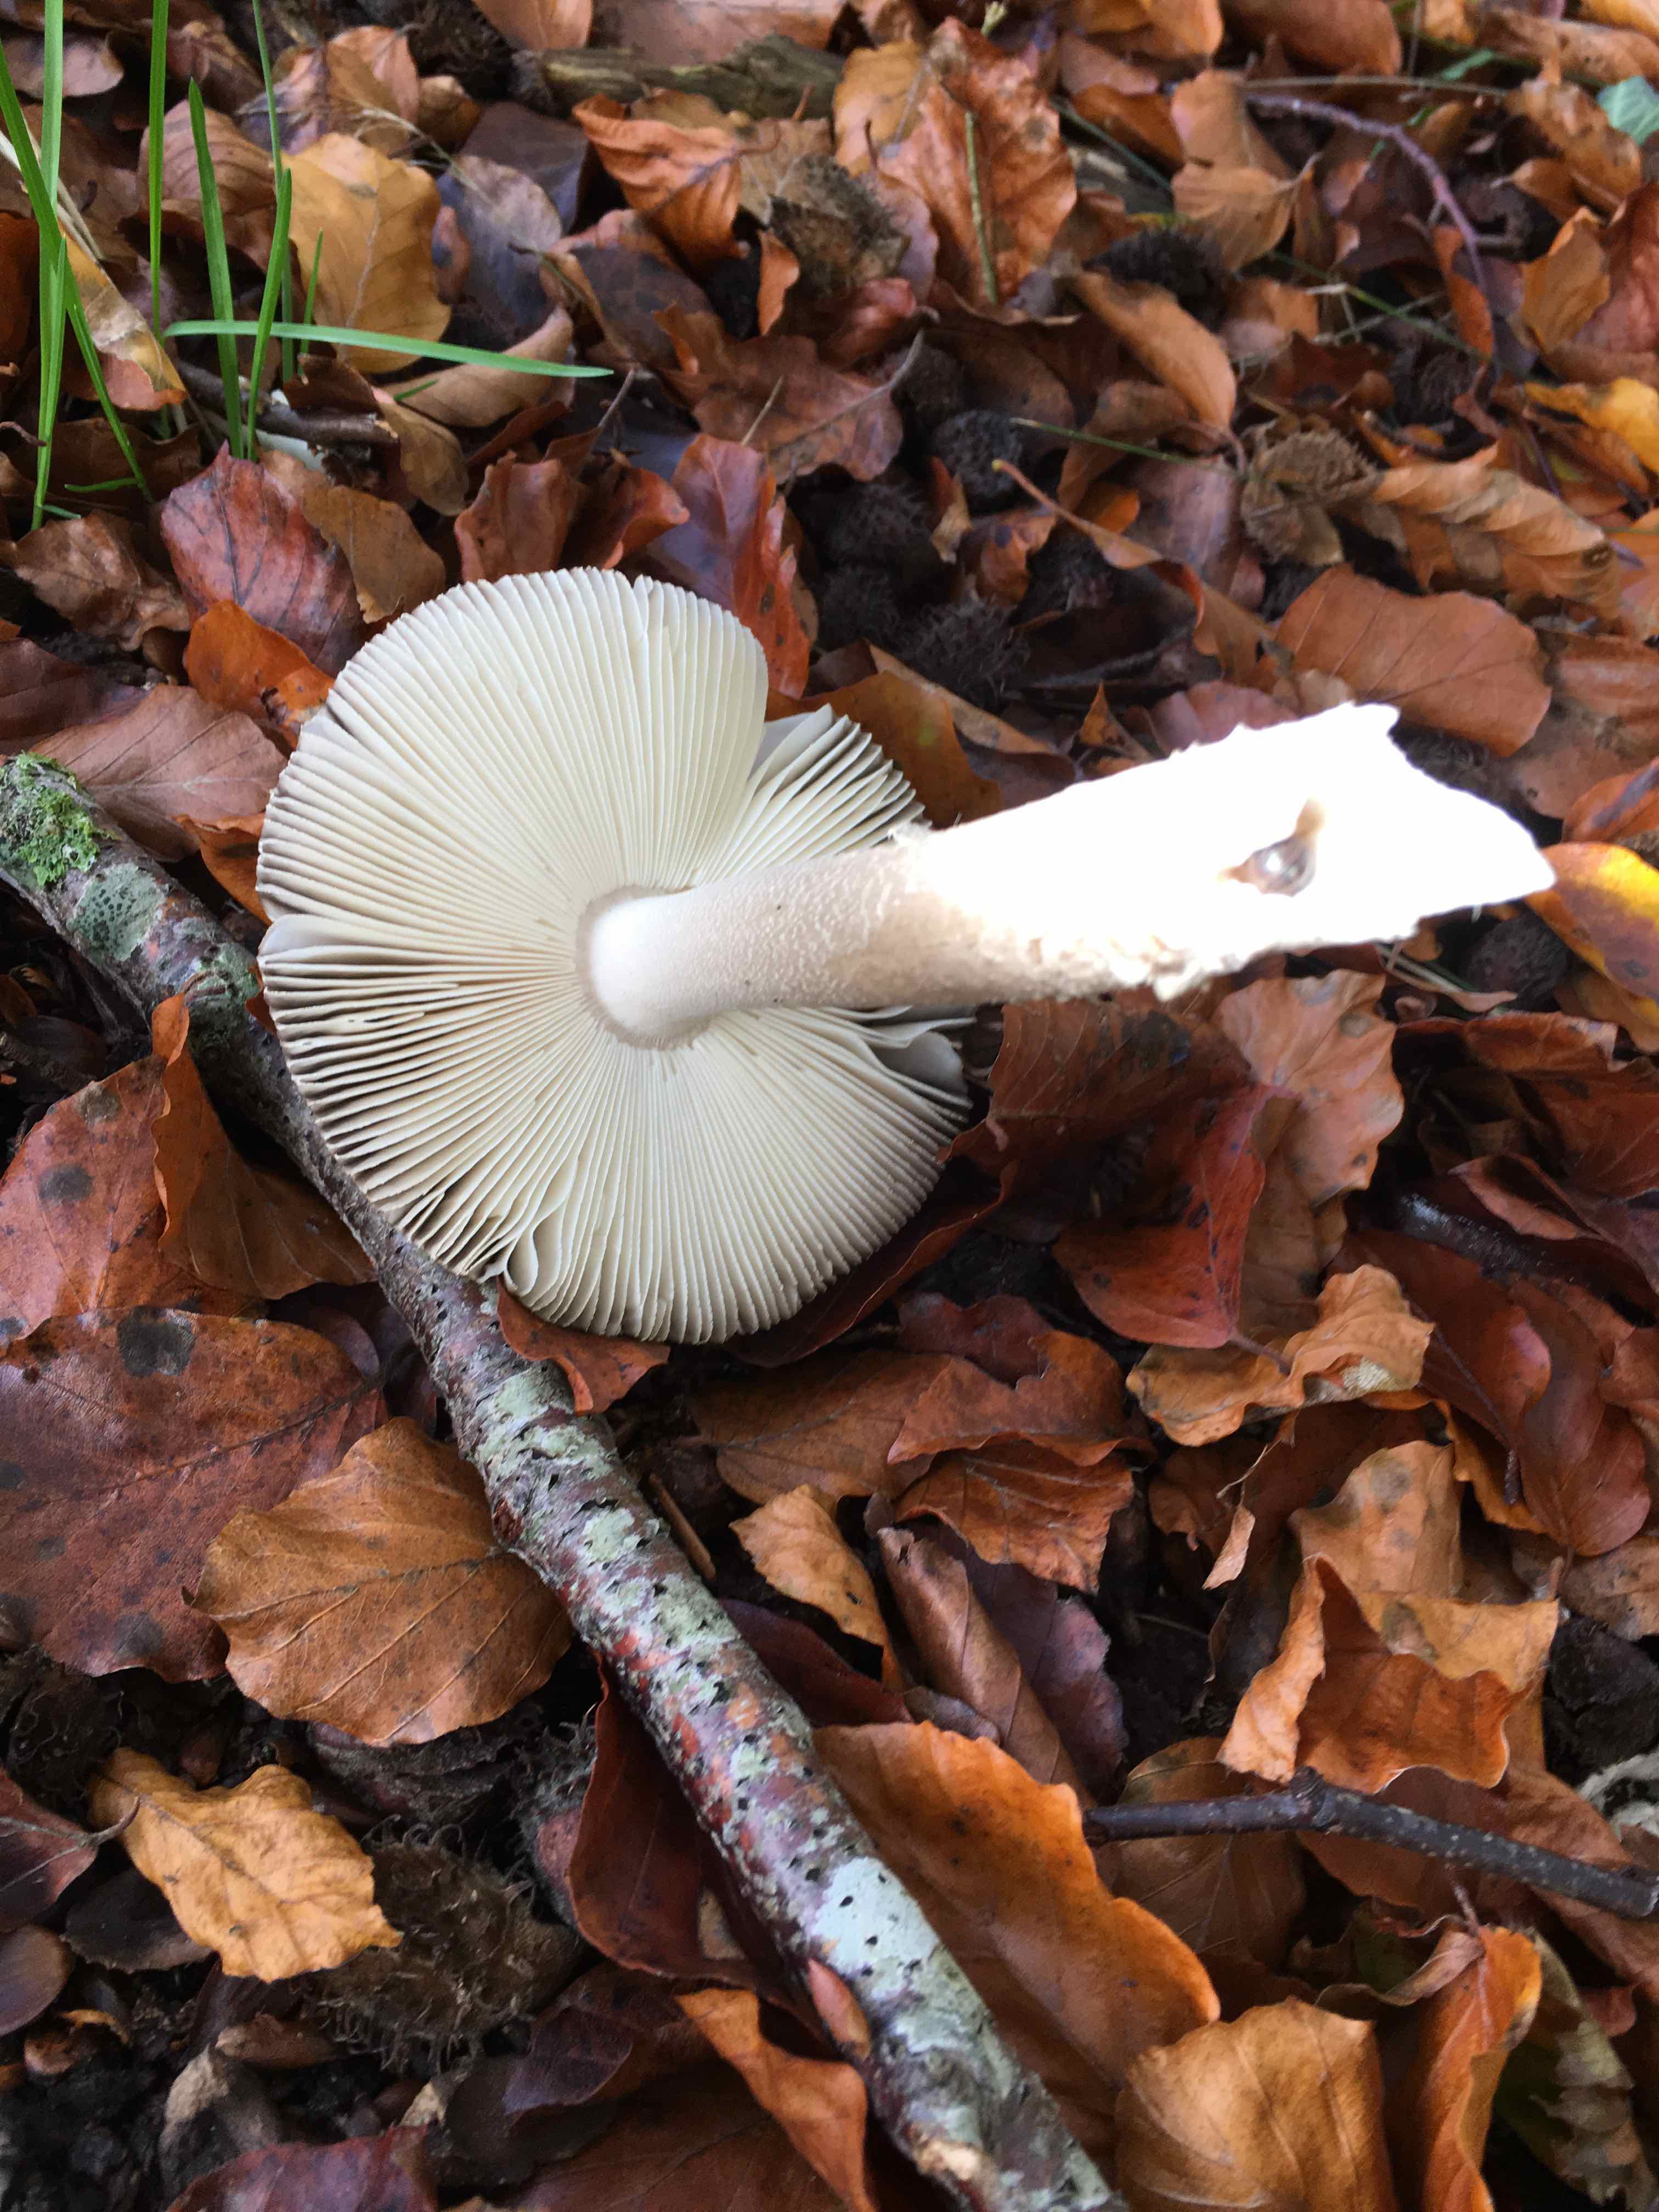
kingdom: Fungi
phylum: Basidiomycota
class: Agaricomycetes
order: Agaricales
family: Amanitaceae
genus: Amanita
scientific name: Amanita
